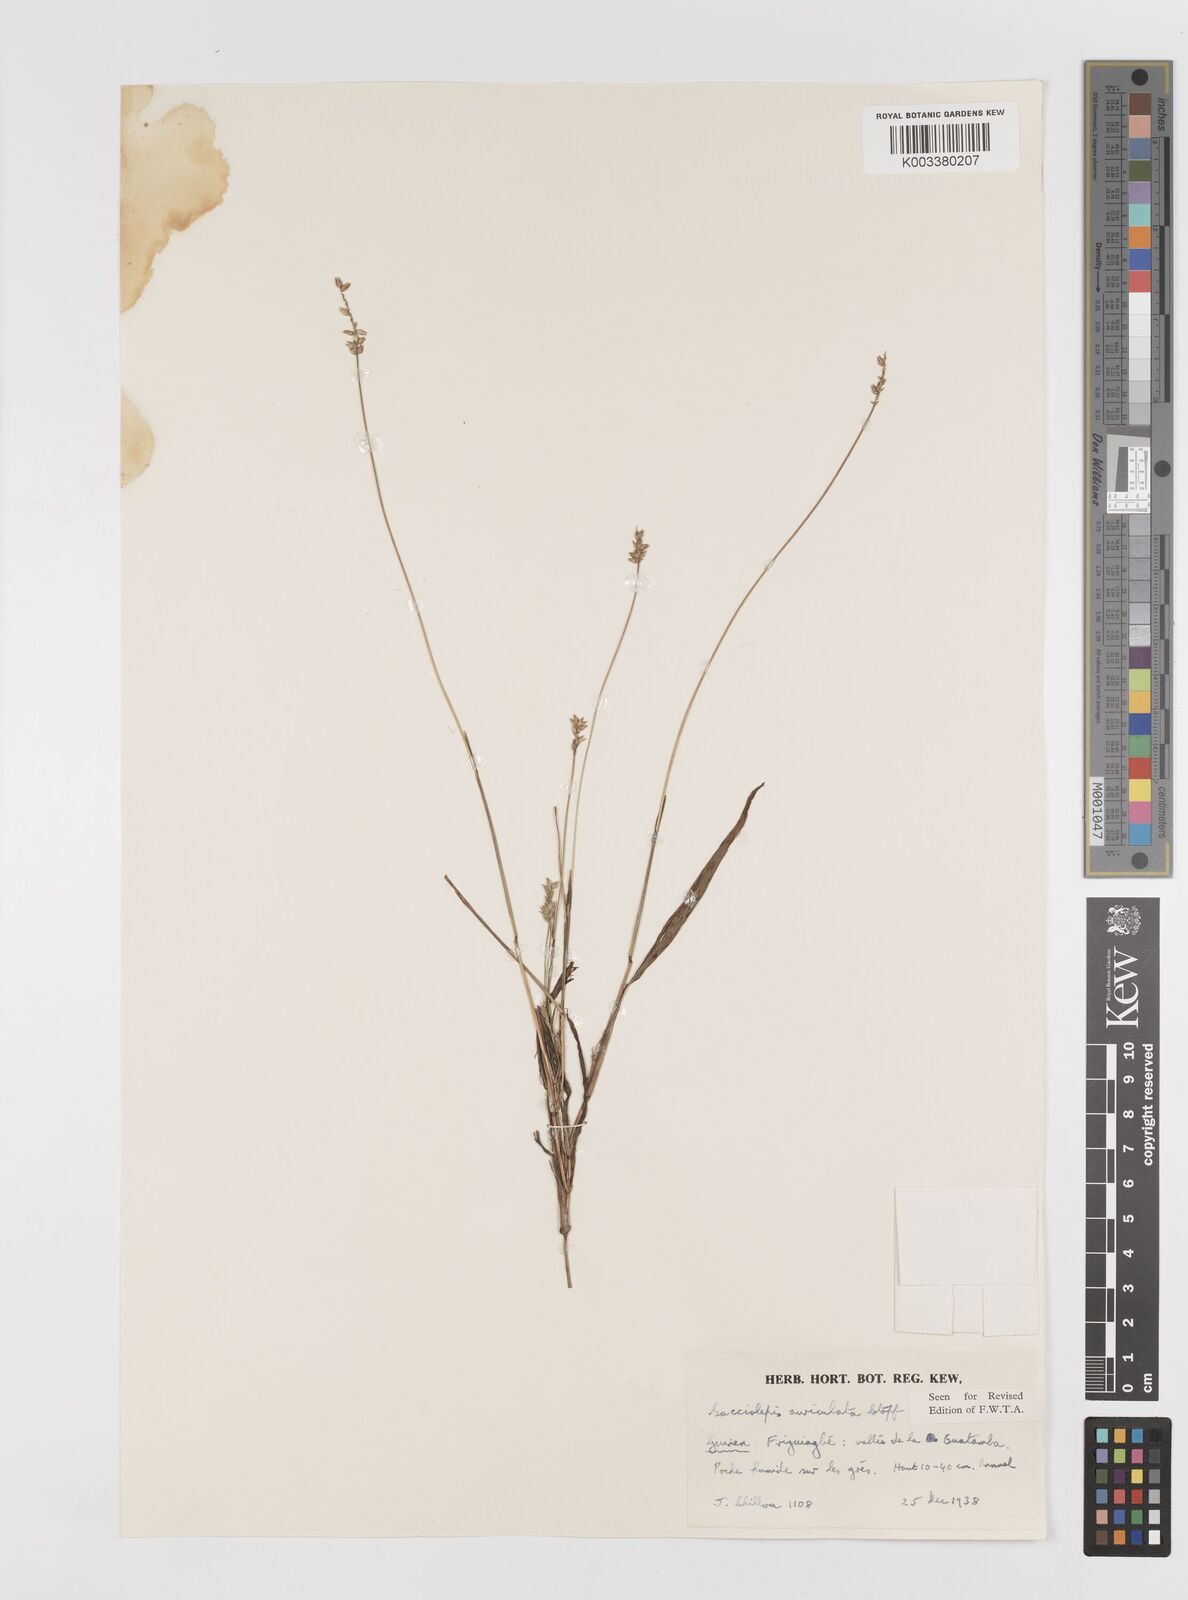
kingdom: Plantae
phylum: Tracheophyta
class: Liliopsida
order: Poales
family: Poaceae
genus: Sacciolepis
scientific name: Sacciolepis indica
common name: Glenwoodgrass
